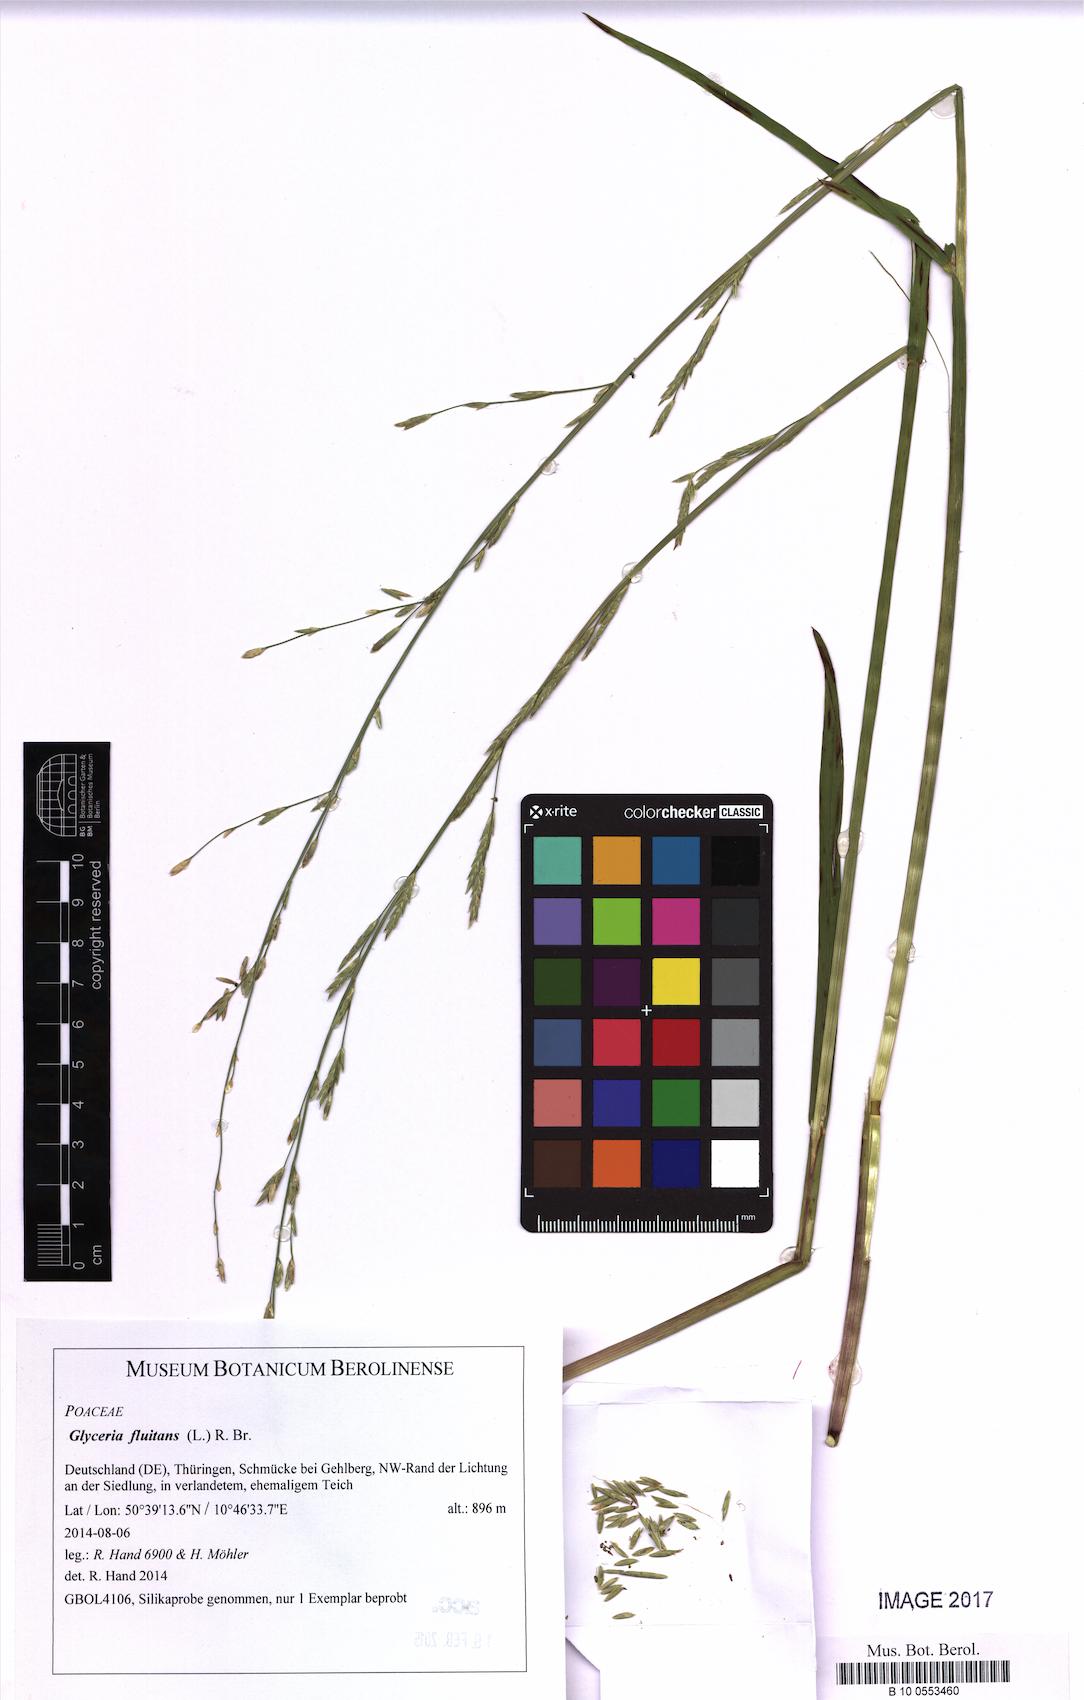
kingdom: Plantae
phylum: Tracheophyta
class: Liliopsida
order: Poales
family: Poaceae
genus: Glyceria
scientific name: Glyceria fluitans
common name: Floating sweet-grass
